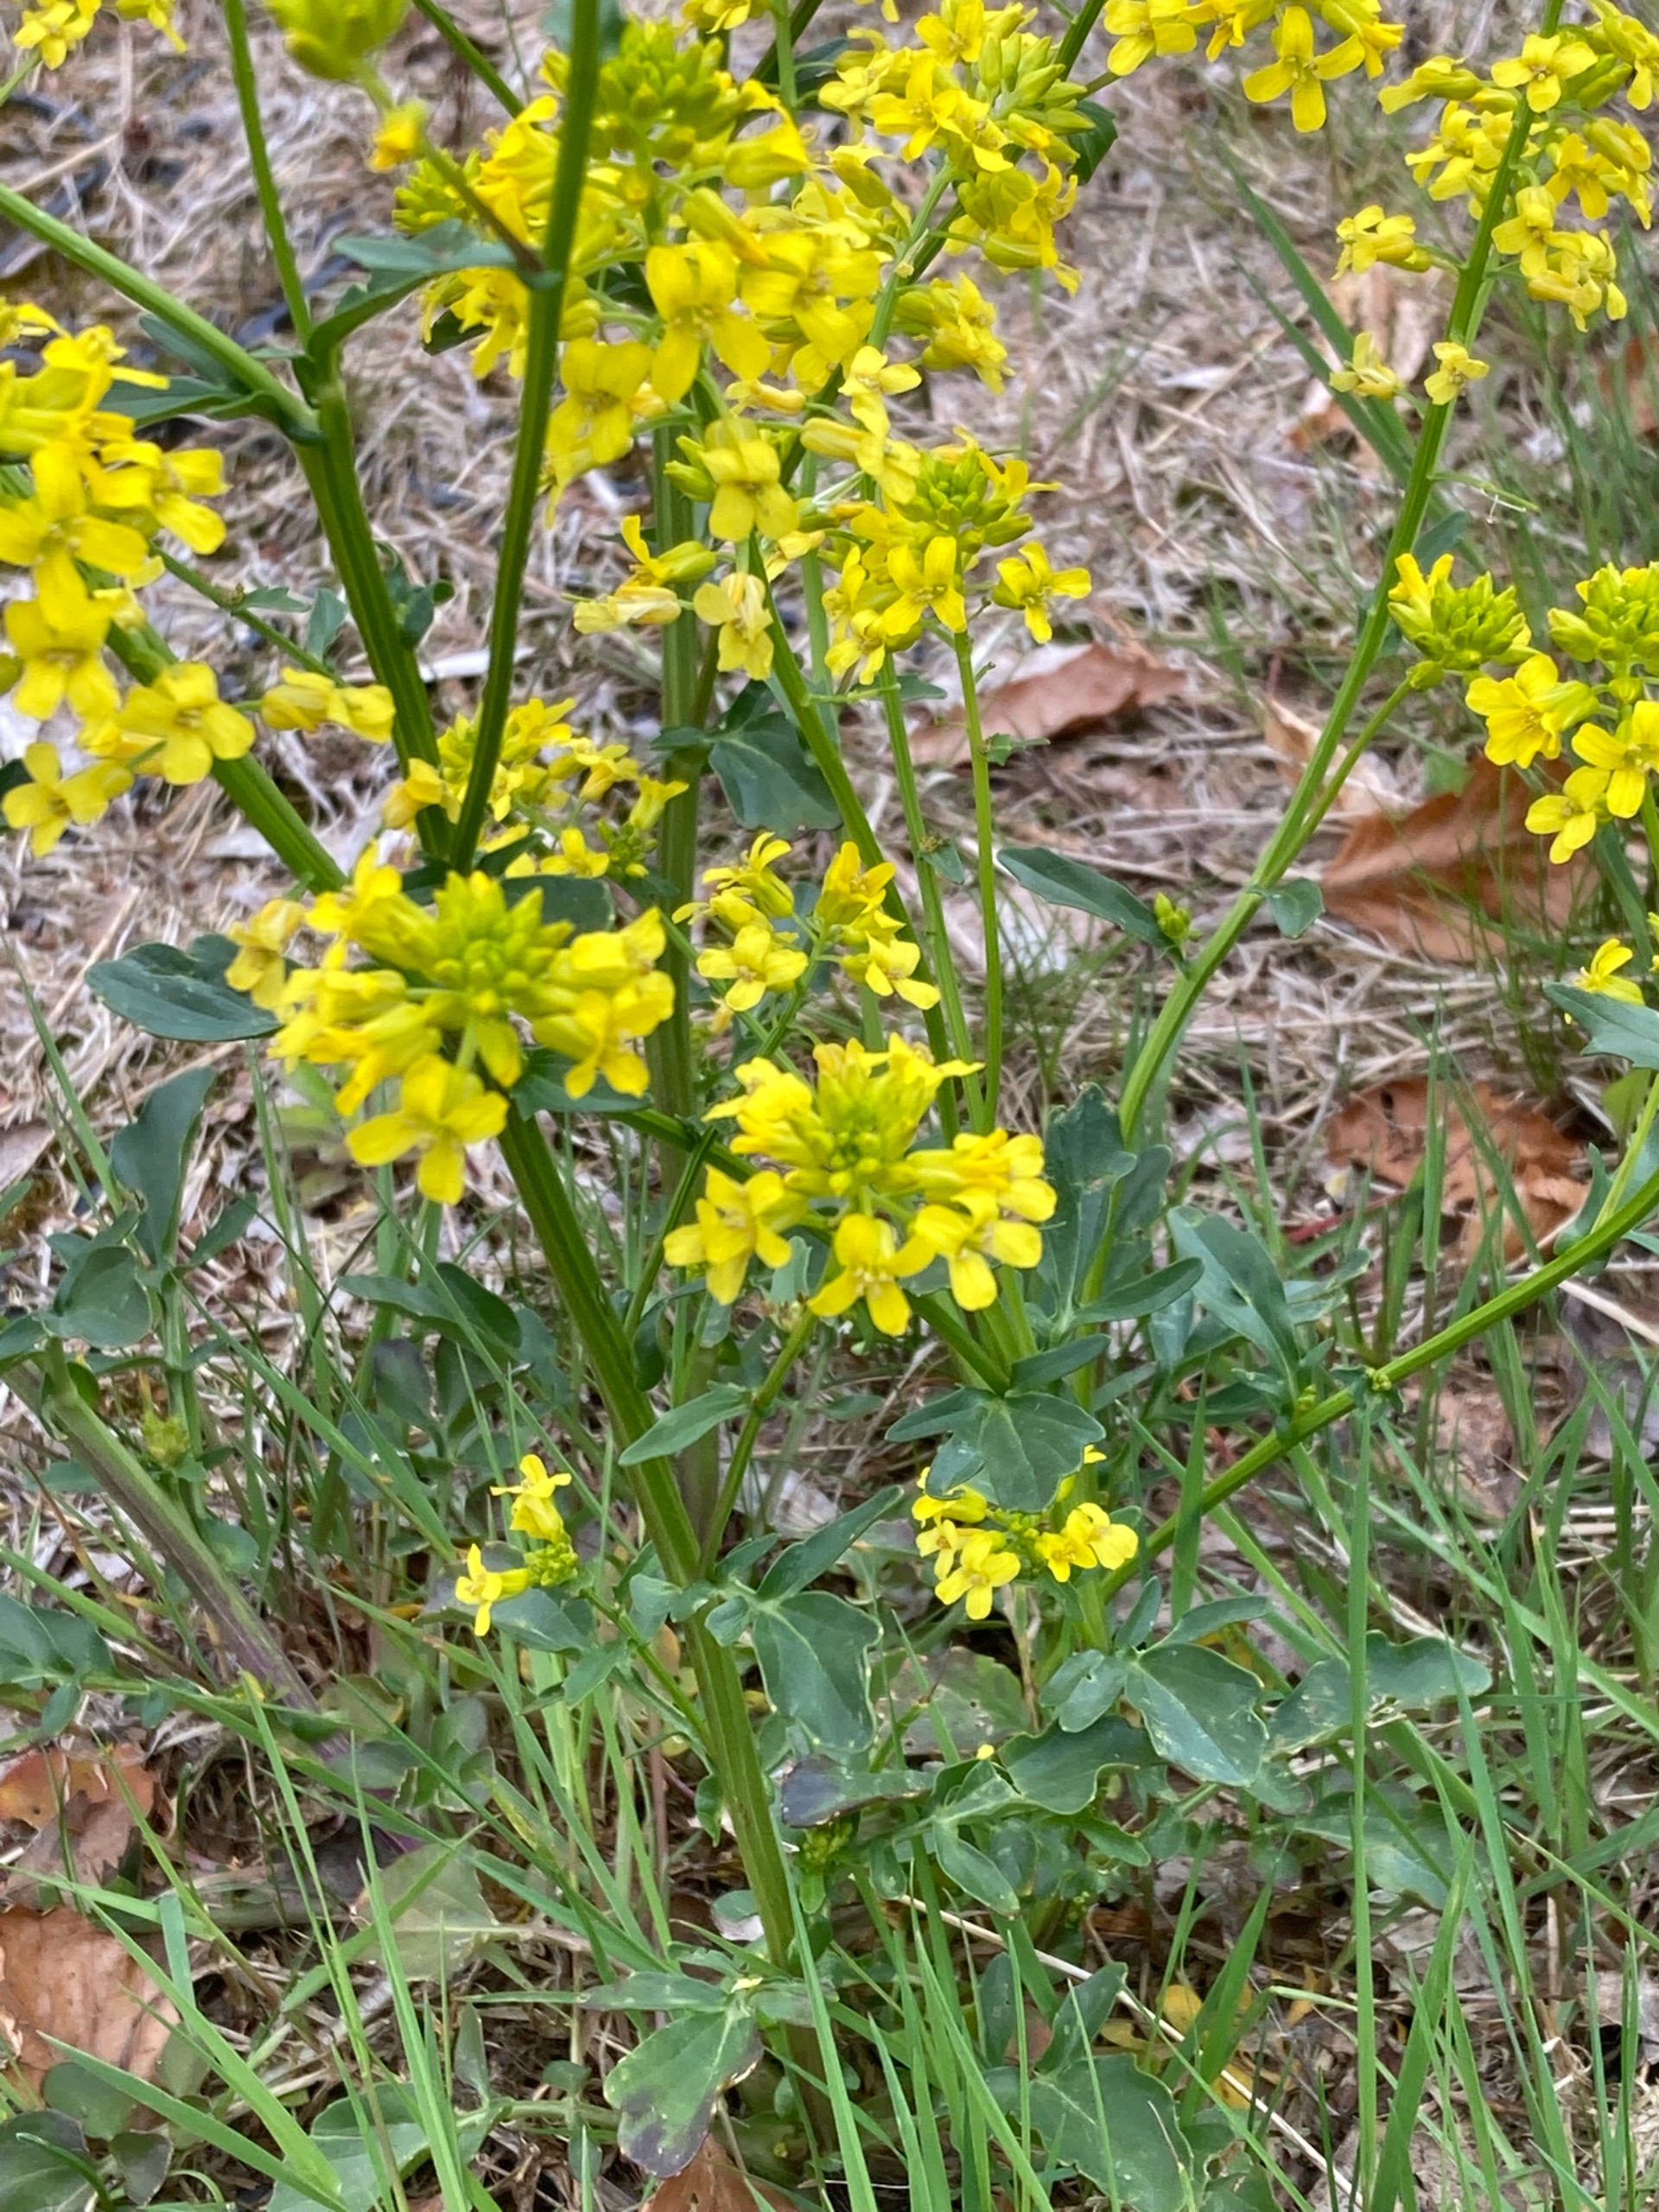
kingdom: Plantae
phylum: Tracheophyta
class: Magnoliopsida
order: Brassicales
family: Brassicaceae
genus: Barbarea
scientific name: Barbarea vulgaris
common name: Udspærret vinterkarse
